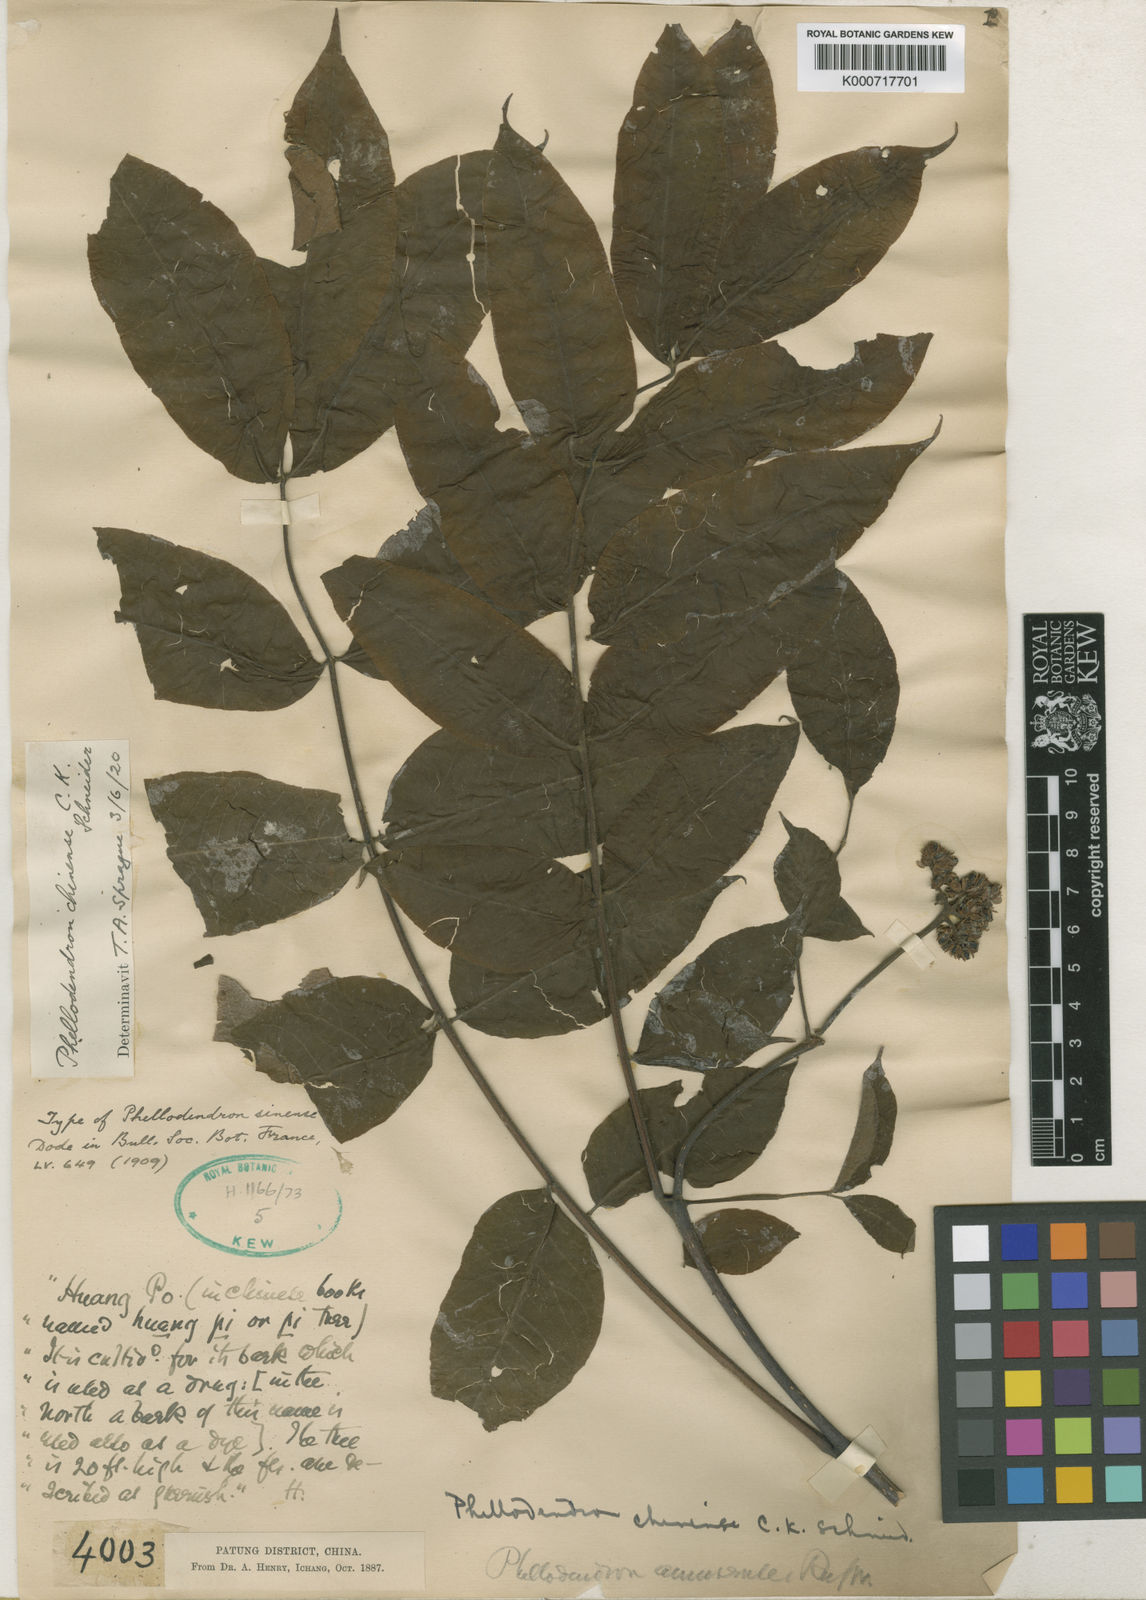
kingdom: Plantae
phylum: Tracheophyta
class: Magnoliopsida
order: Sapindales
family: Rutaceae
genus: Phellodendron
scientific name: Phellodendron chinense
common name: Phellodendron
